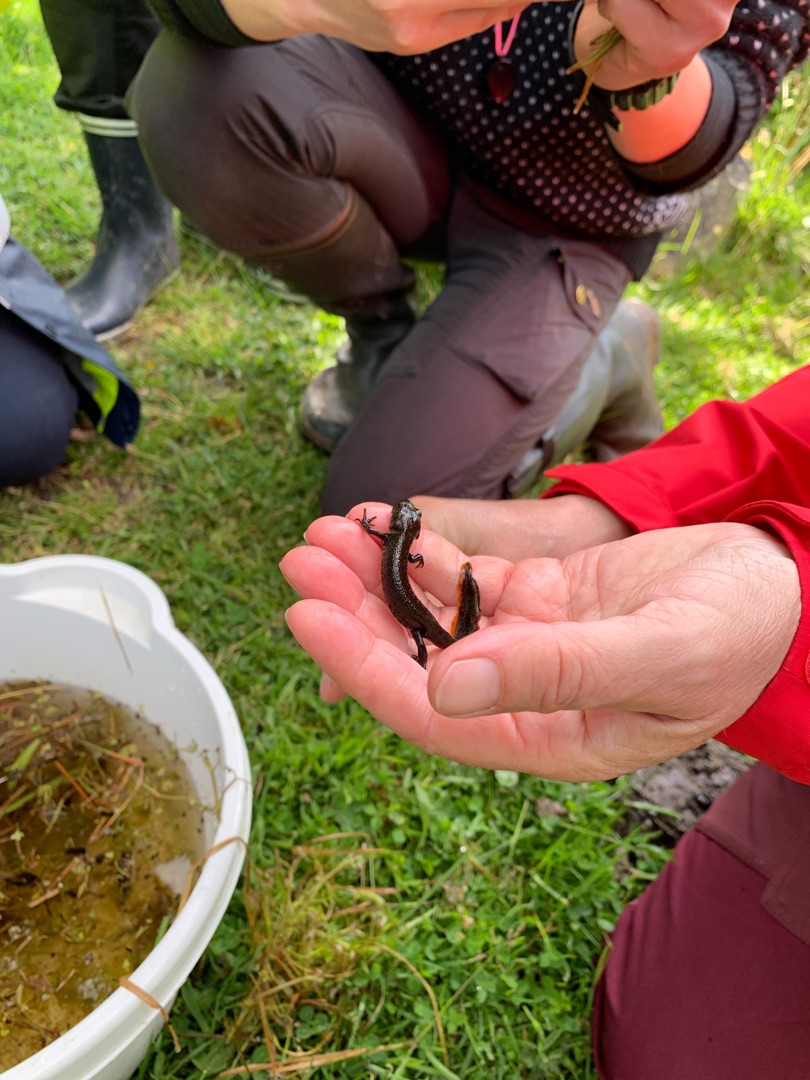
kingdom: Animalia
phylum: Chordata
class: Amphibia
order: Caudata
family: Salamandridae
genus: Triturus
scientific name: Triturus cristatus
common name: Stor vandsalamander
